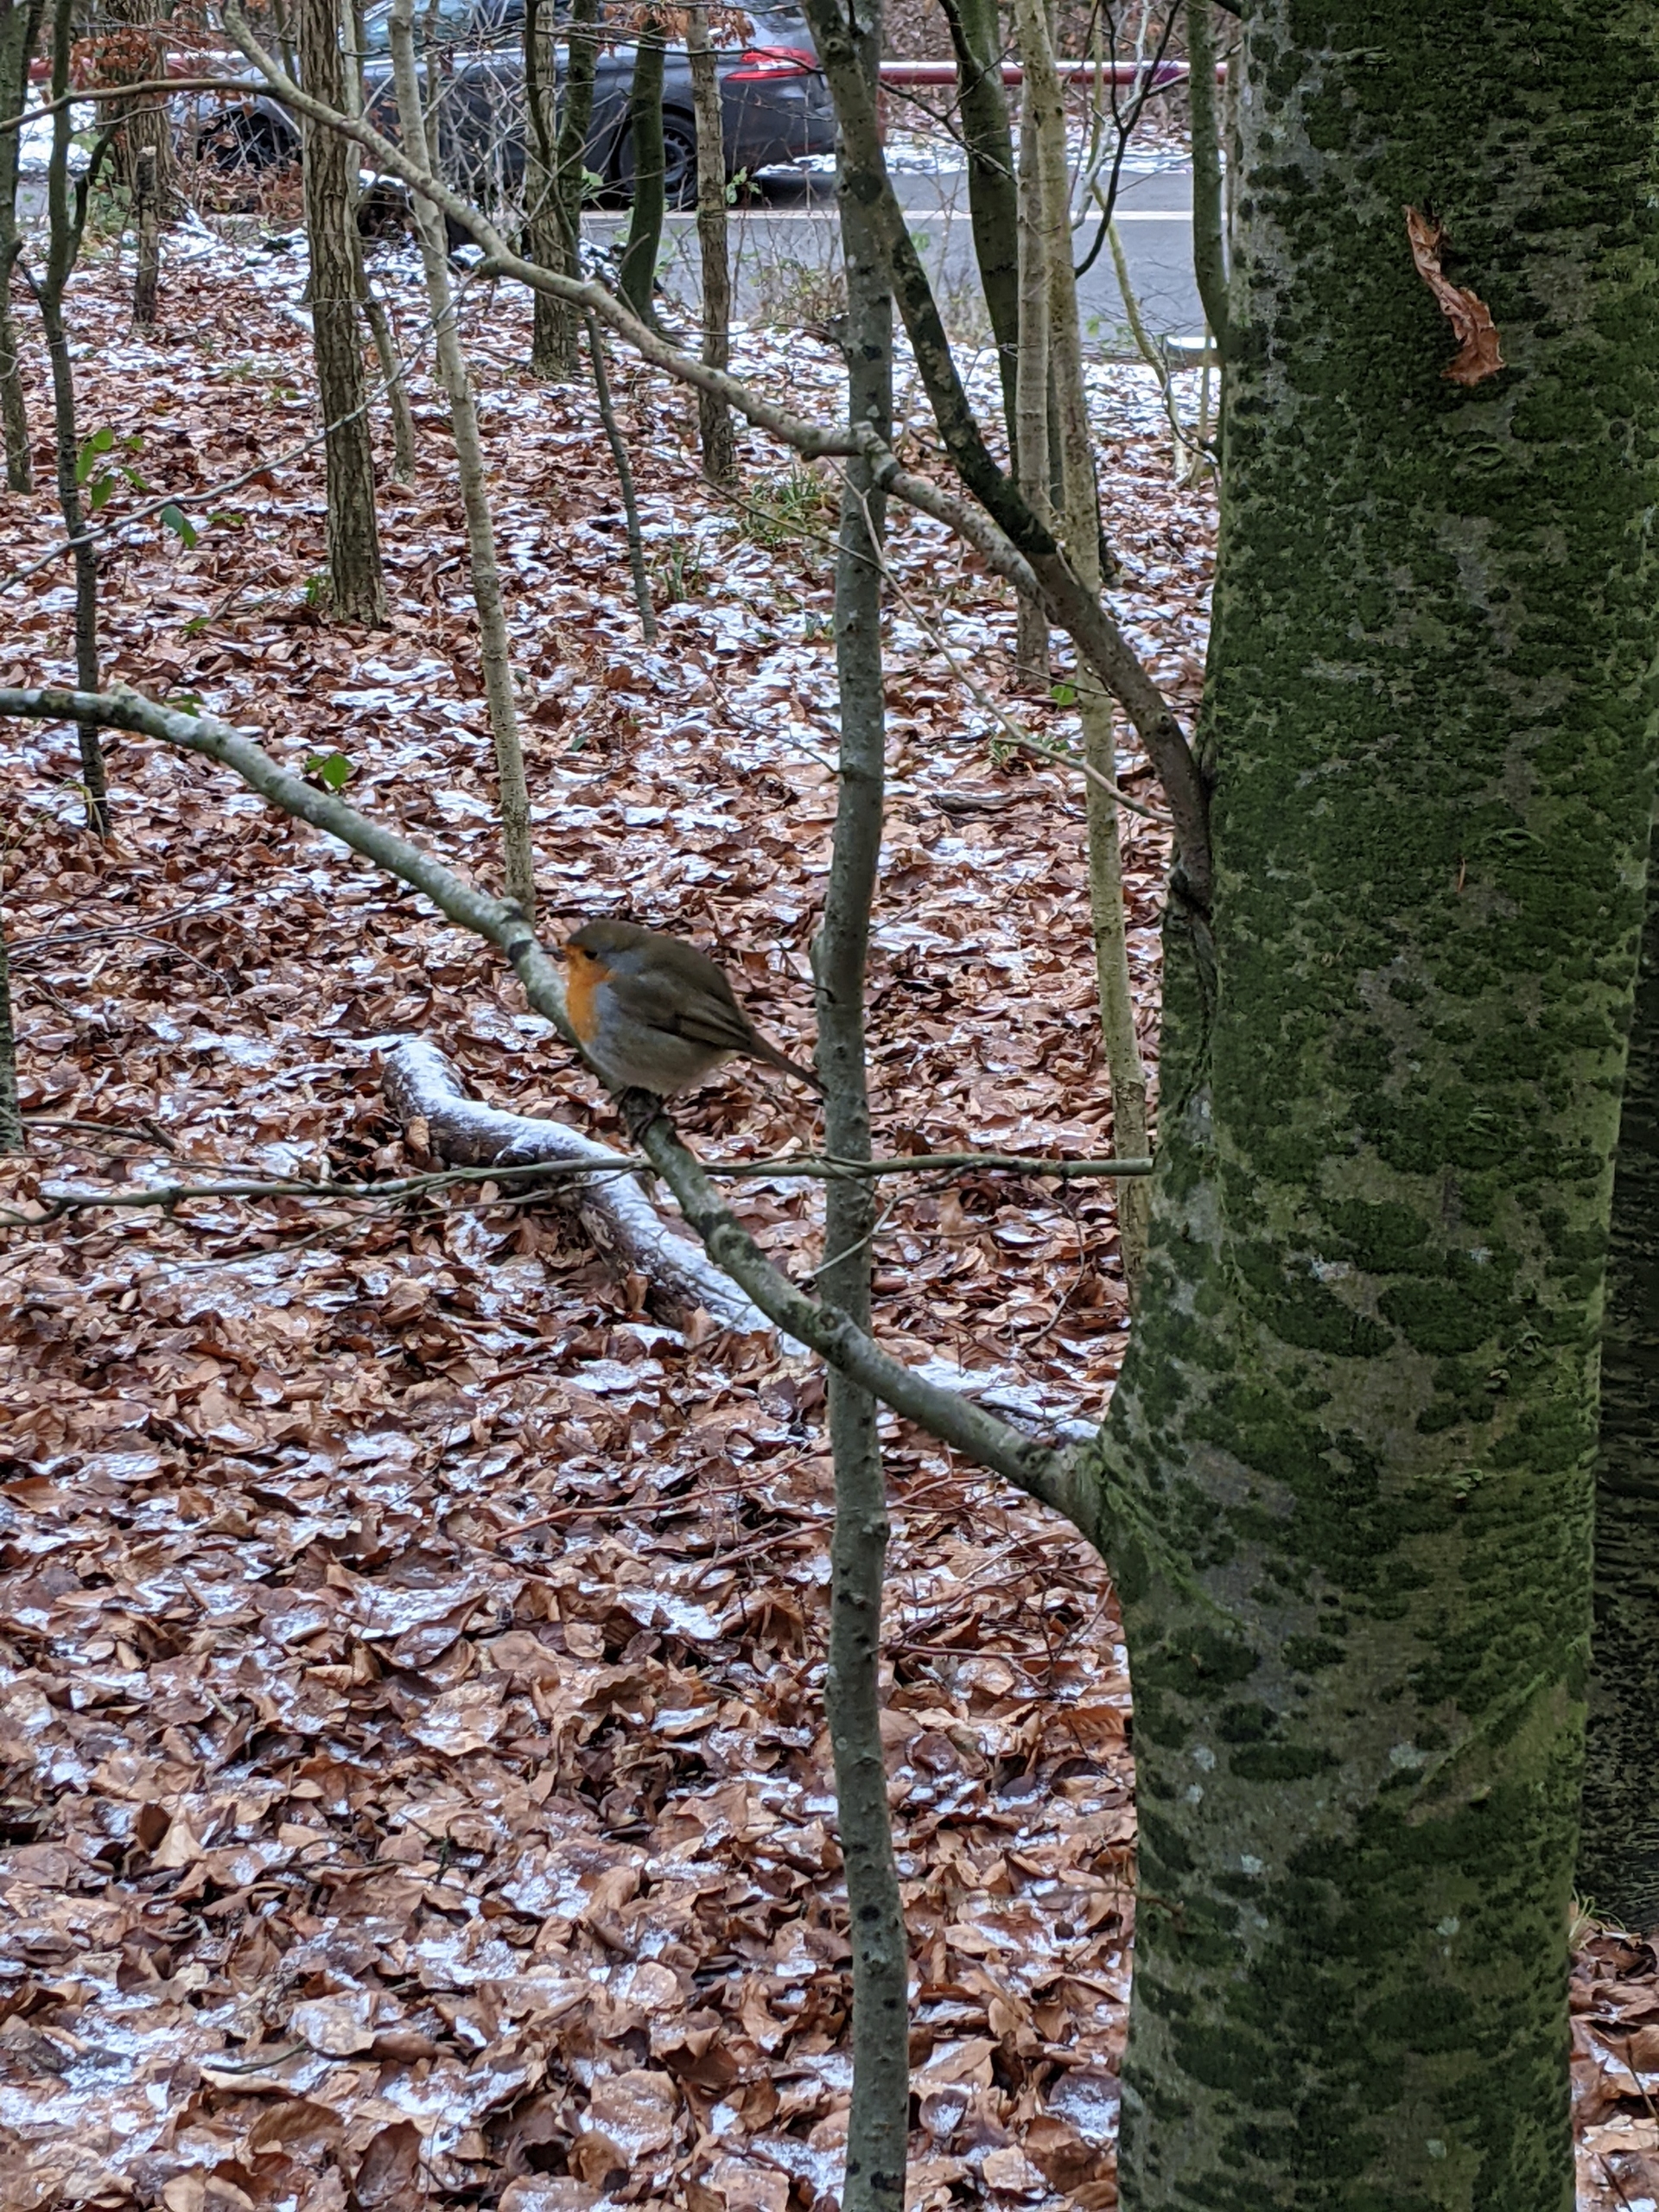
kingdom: Animalia
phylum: Chordata
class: Aves
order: Passeriformes
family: Muscicapidae
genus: Erithacus
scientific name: Erithacus rubecula
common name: Rødhals/rødkælk
